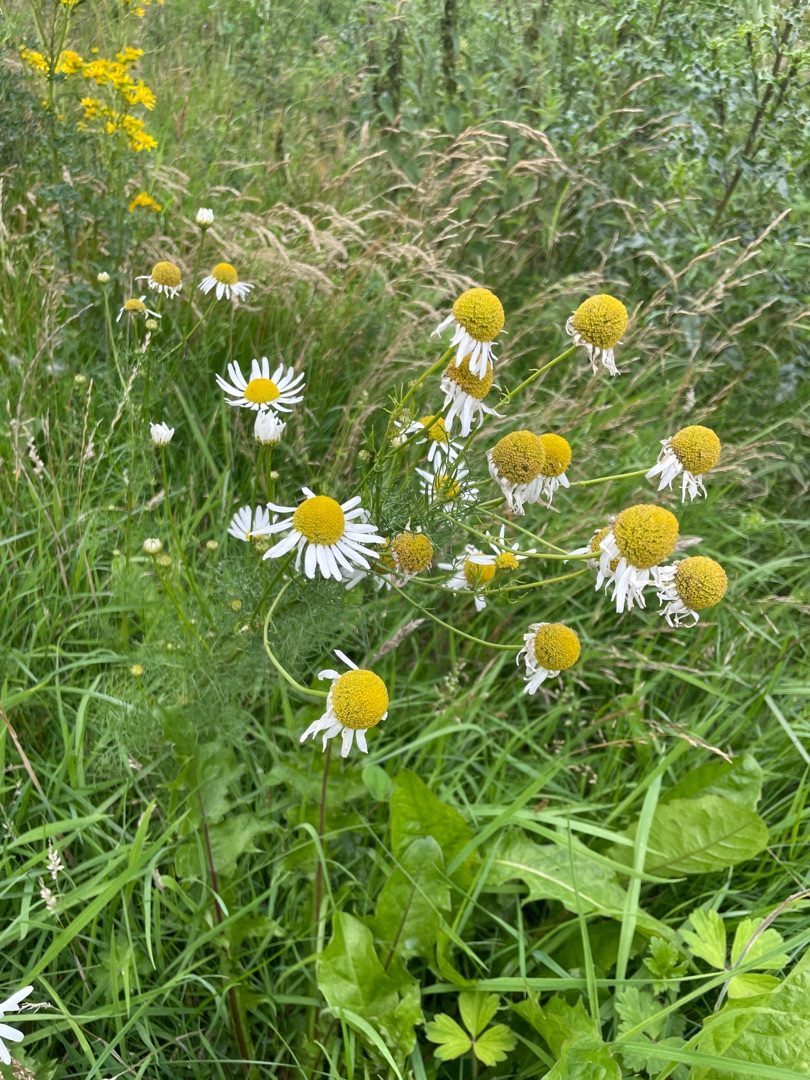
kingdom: Plantae
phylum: Tracheophyta
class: Magnoliopsida
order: Asterales
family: Asteraceae
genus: Tripleurospermum
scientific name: Tripleurospermum inodorum
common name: Lugtløs kamille
